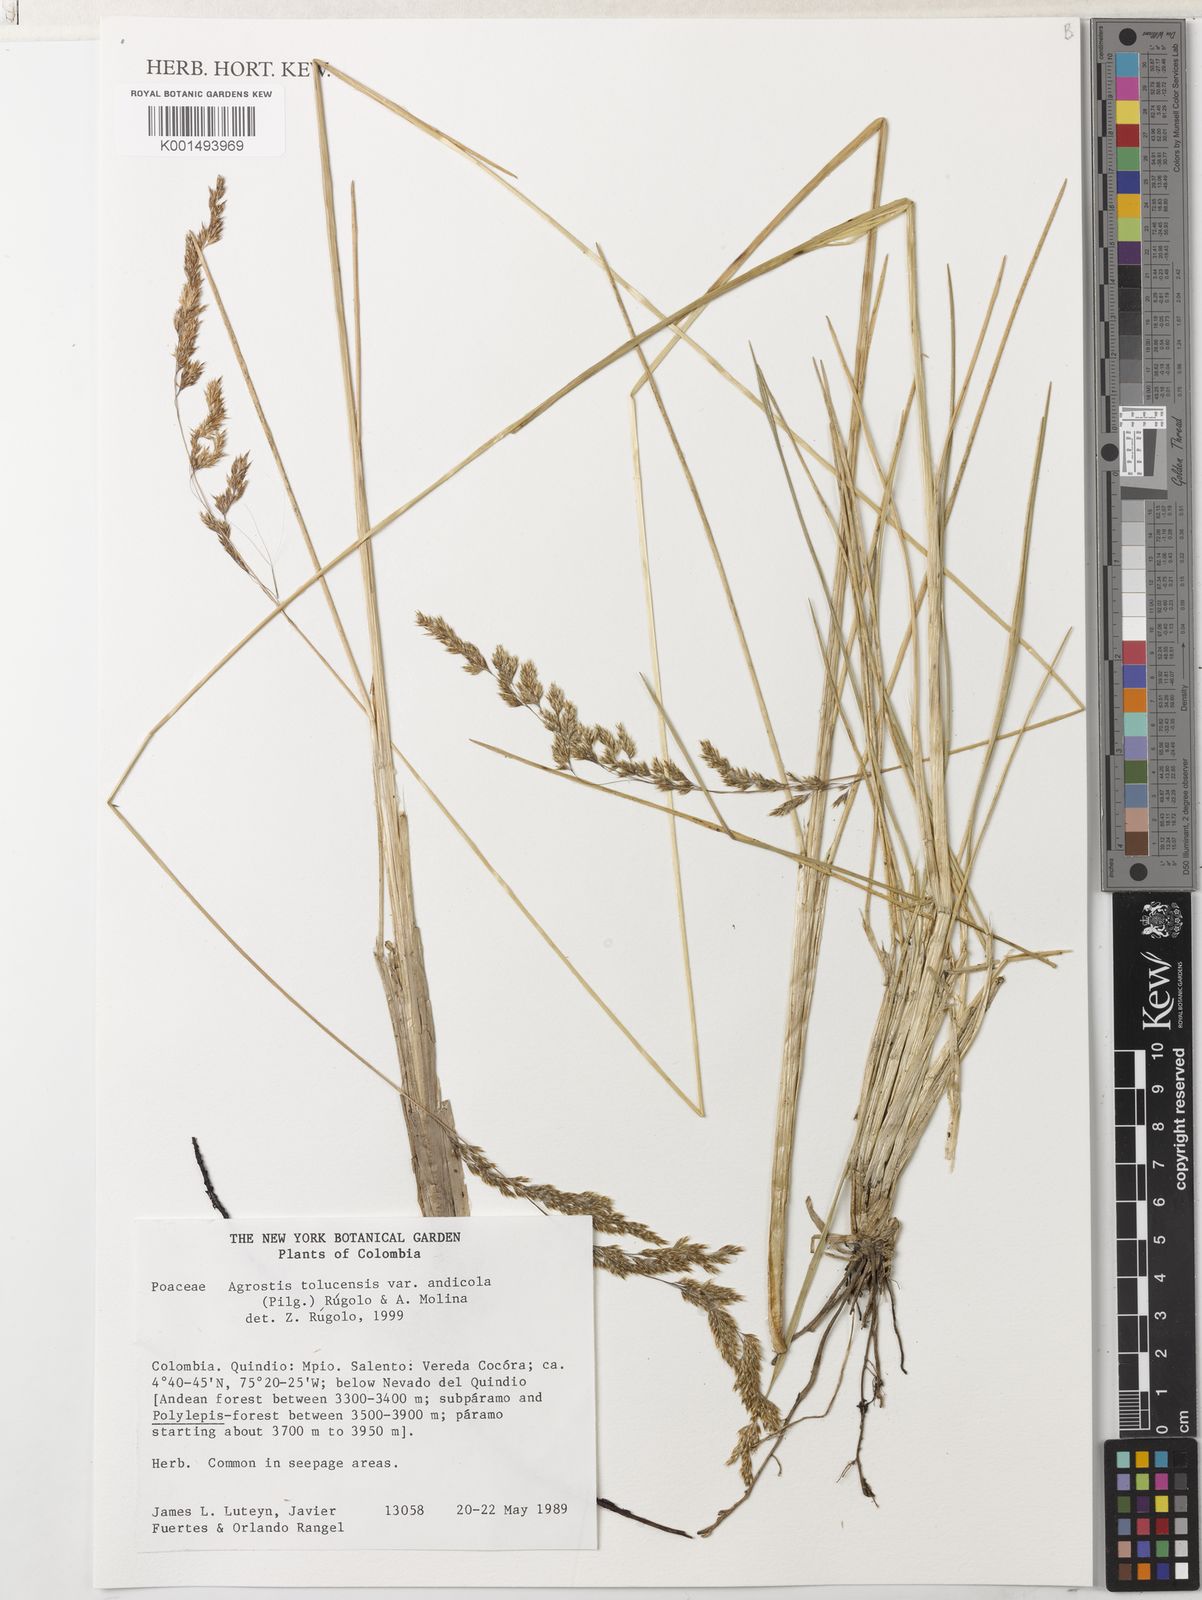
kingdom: Plantae
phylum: Tracheophyta
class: Liliopsida
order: Poales
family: Poaceae
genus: Agrostis
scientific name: Agrostis tolucensis
